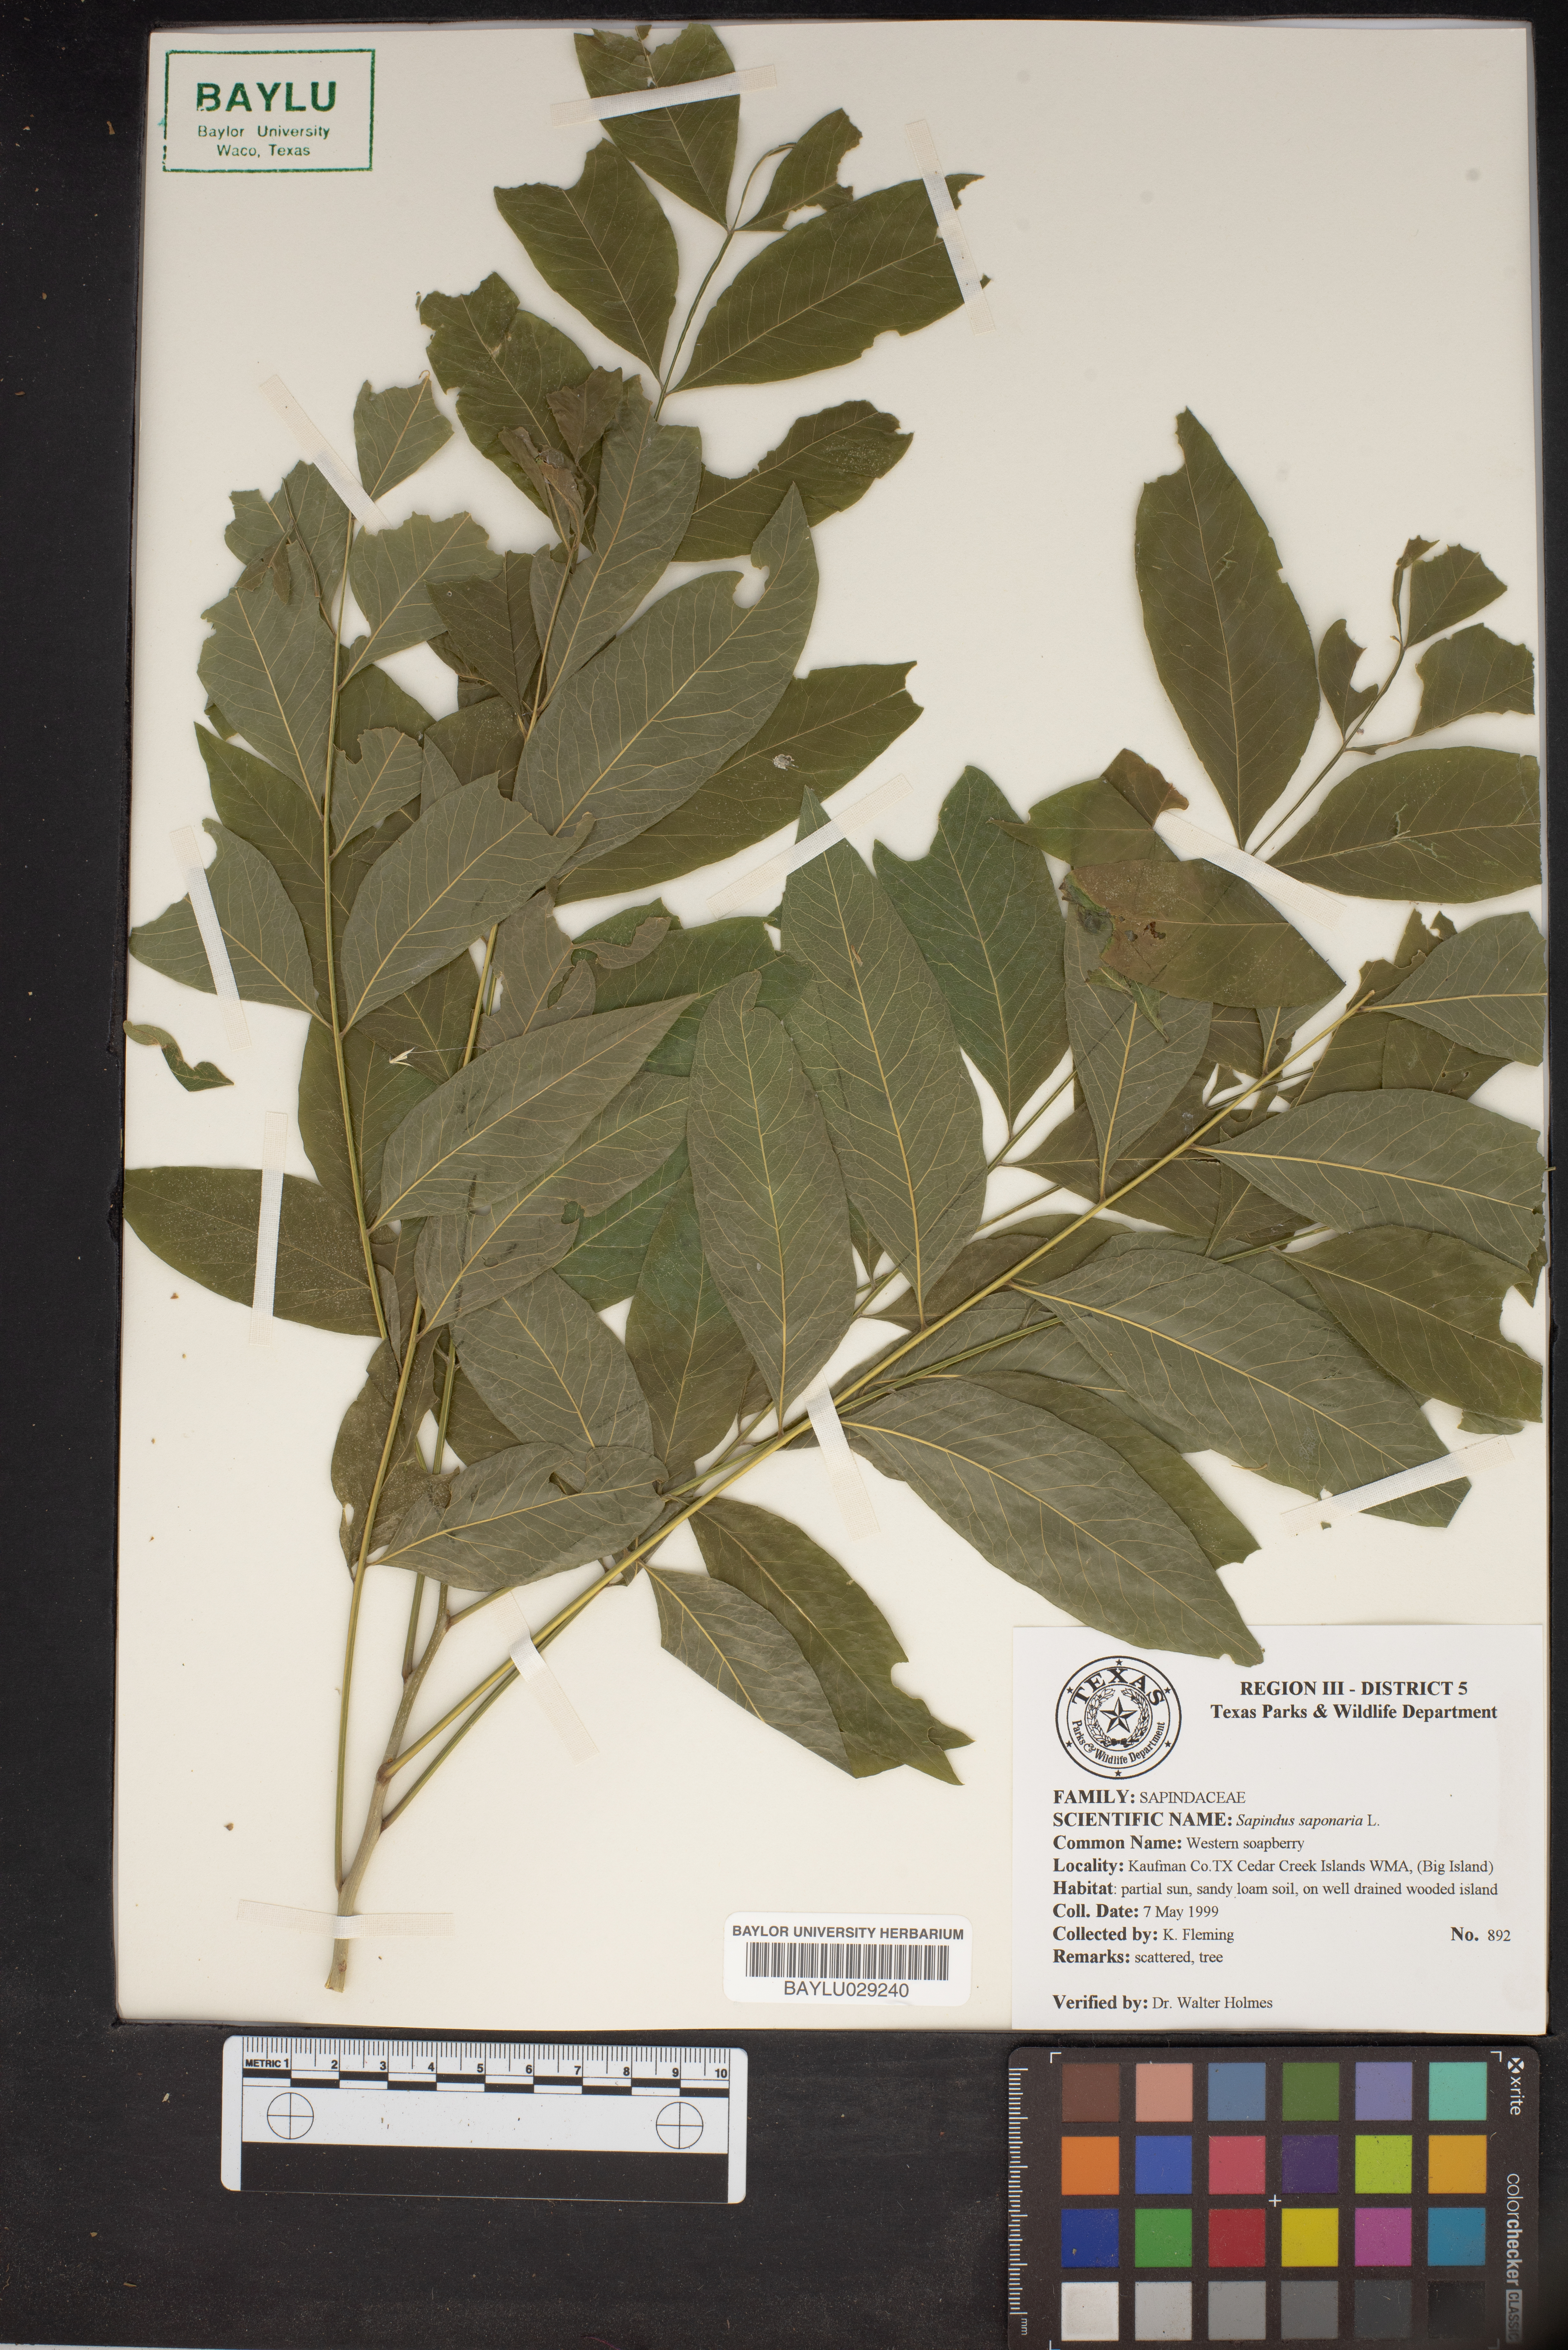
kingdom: Plantae
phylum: Tracheophyta
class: Magnoliopsida
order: Sapindales
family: Sapindaceae
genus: Sapindus
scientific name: Sapindus saponaria
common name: Wingleaf soapberry
